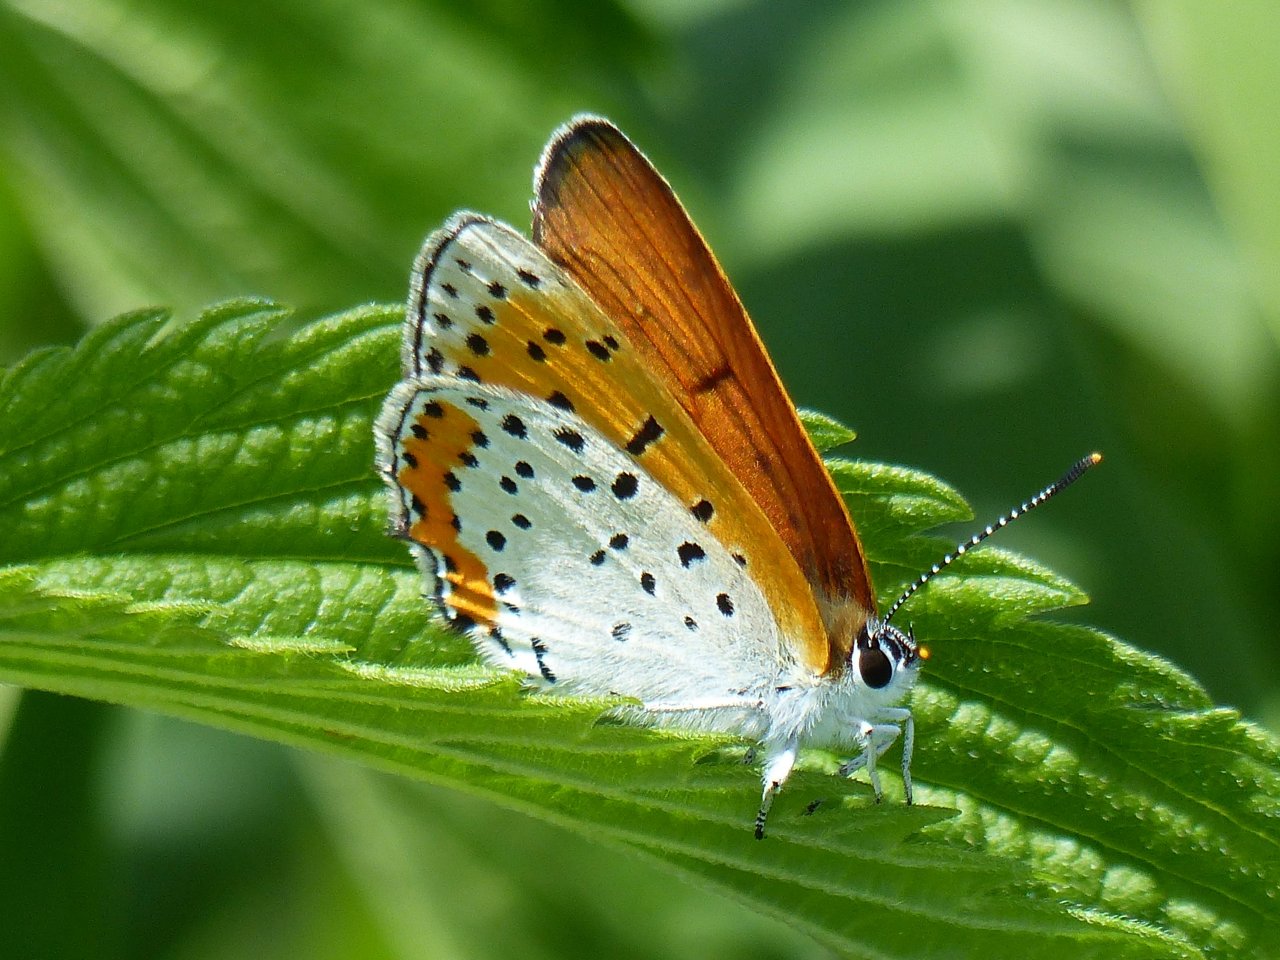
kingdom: Animalia
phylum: Arthropoda
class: Insecta
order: Lepidoptera
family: Sesiidae
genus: Sesia
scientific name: Sesia Lycaena hyllus
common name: Bronze Copper
